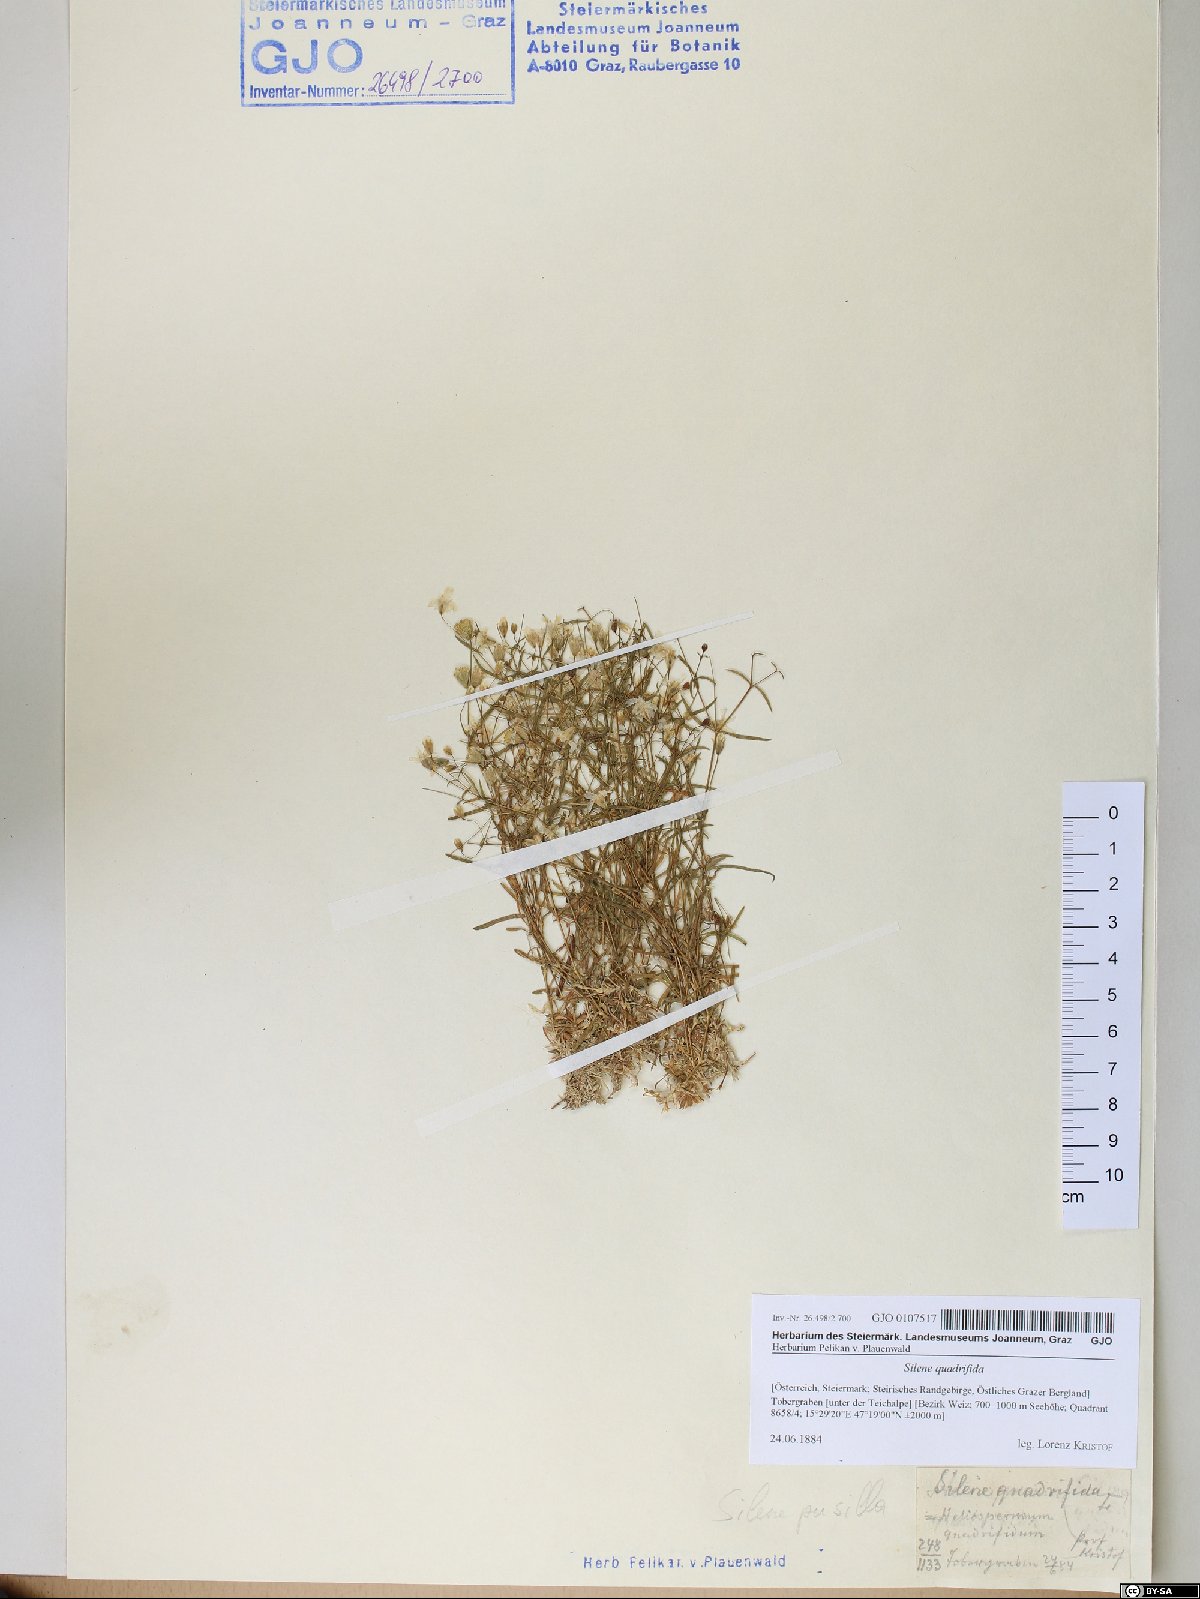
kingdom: Plantae
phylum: Tracheophyta
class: Magnoliopsida
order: Caryophyllales
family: Caryophyllaceae
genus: Heliosperma
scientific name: Heliosperma alpestre
